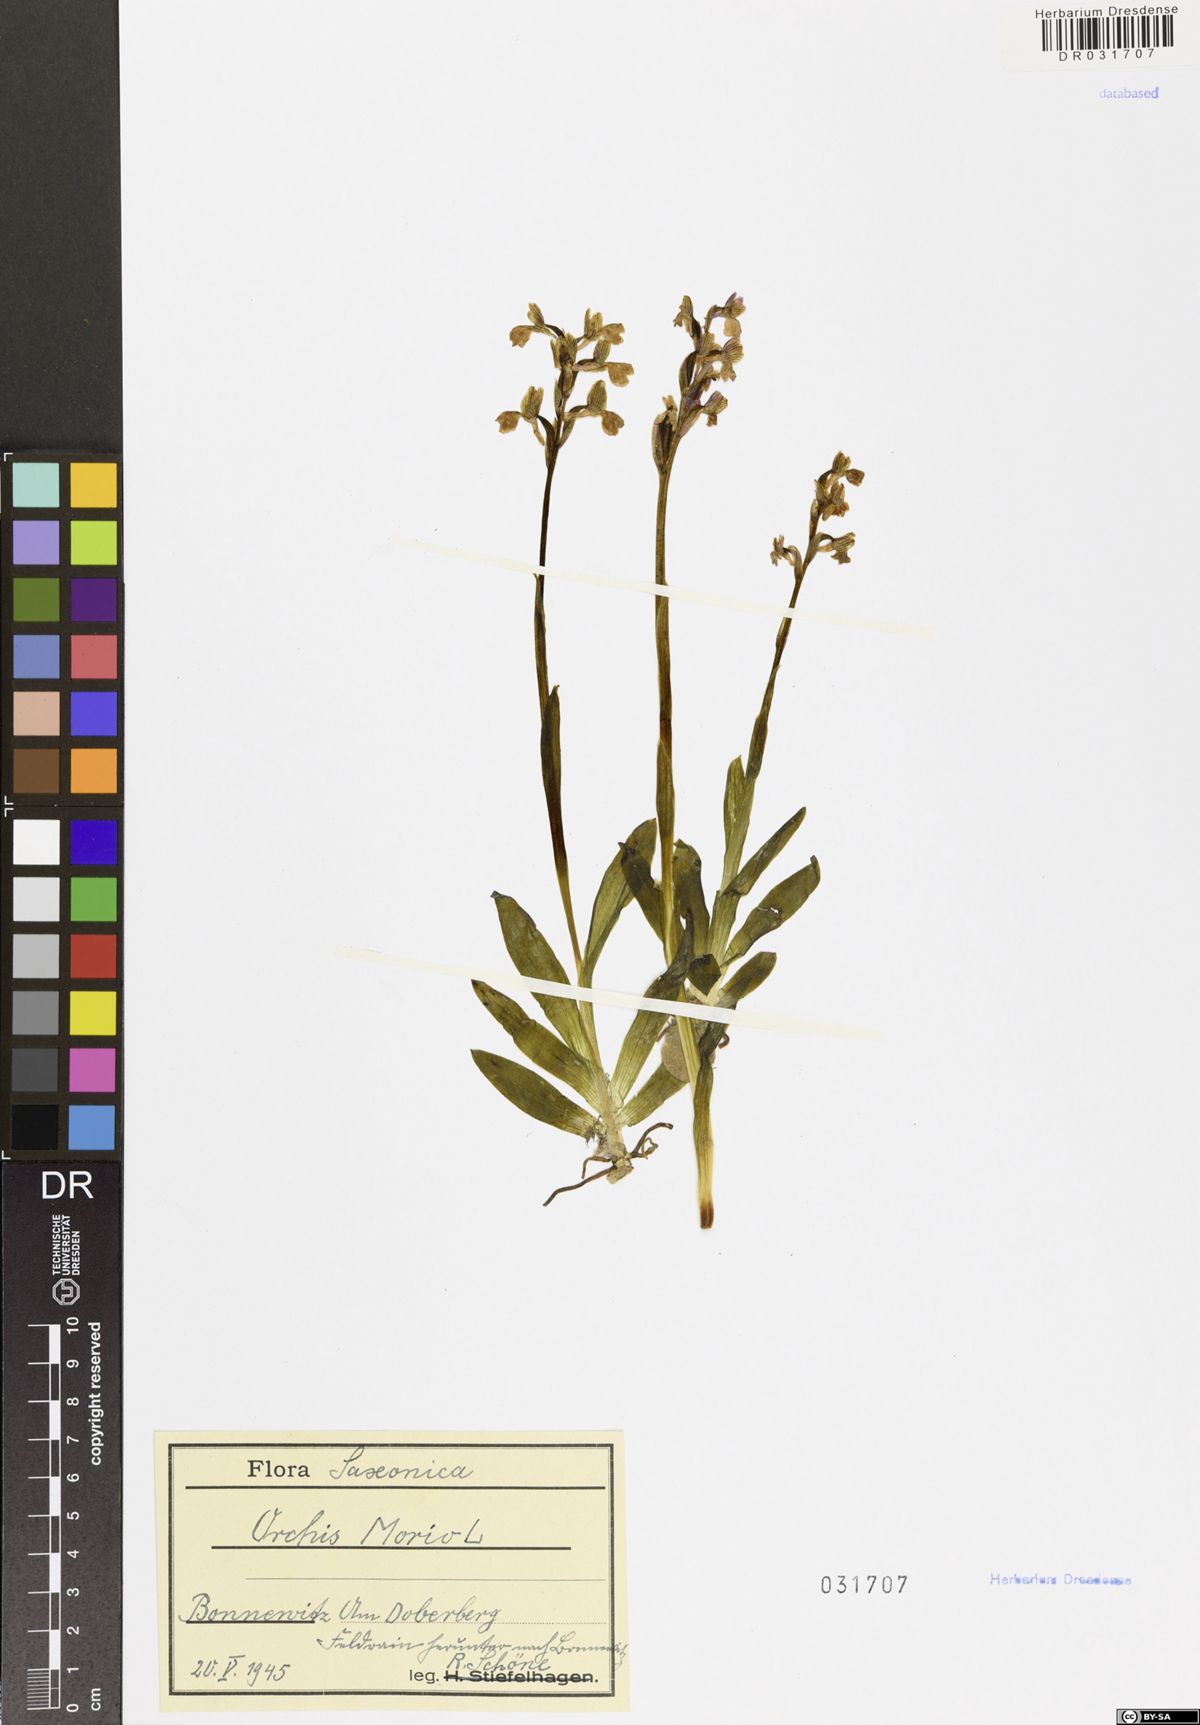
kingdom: Plantae
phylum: Tracheophyta
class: Liliopsida
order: Asparagales
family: Orchidaceae
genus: Anacamptis
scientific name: Anacamptis morio
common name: Green-winged orchid
